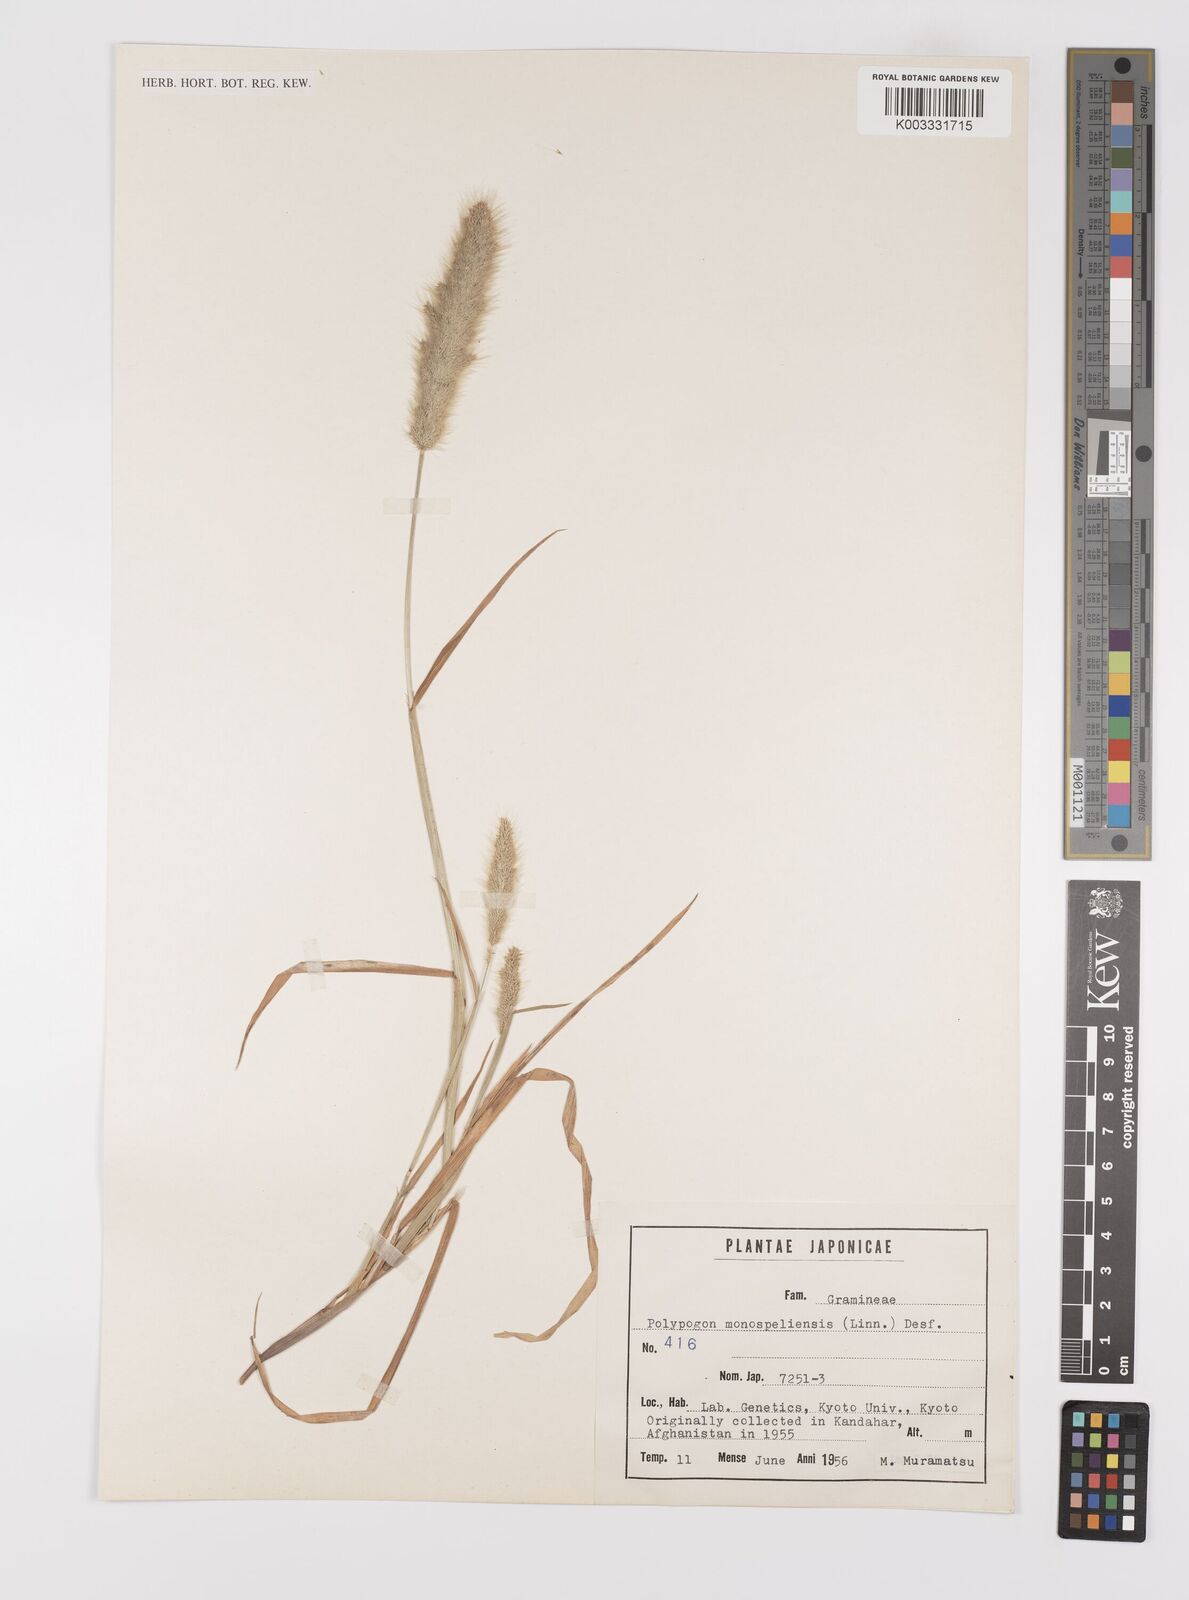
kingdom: Plantae
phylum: Tracheophyta
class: Liliopsida
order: Poales
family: Poaceae
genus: Polypogon
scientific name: Polypogon monspeliensis
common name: Annual rabbitsfoot grass
